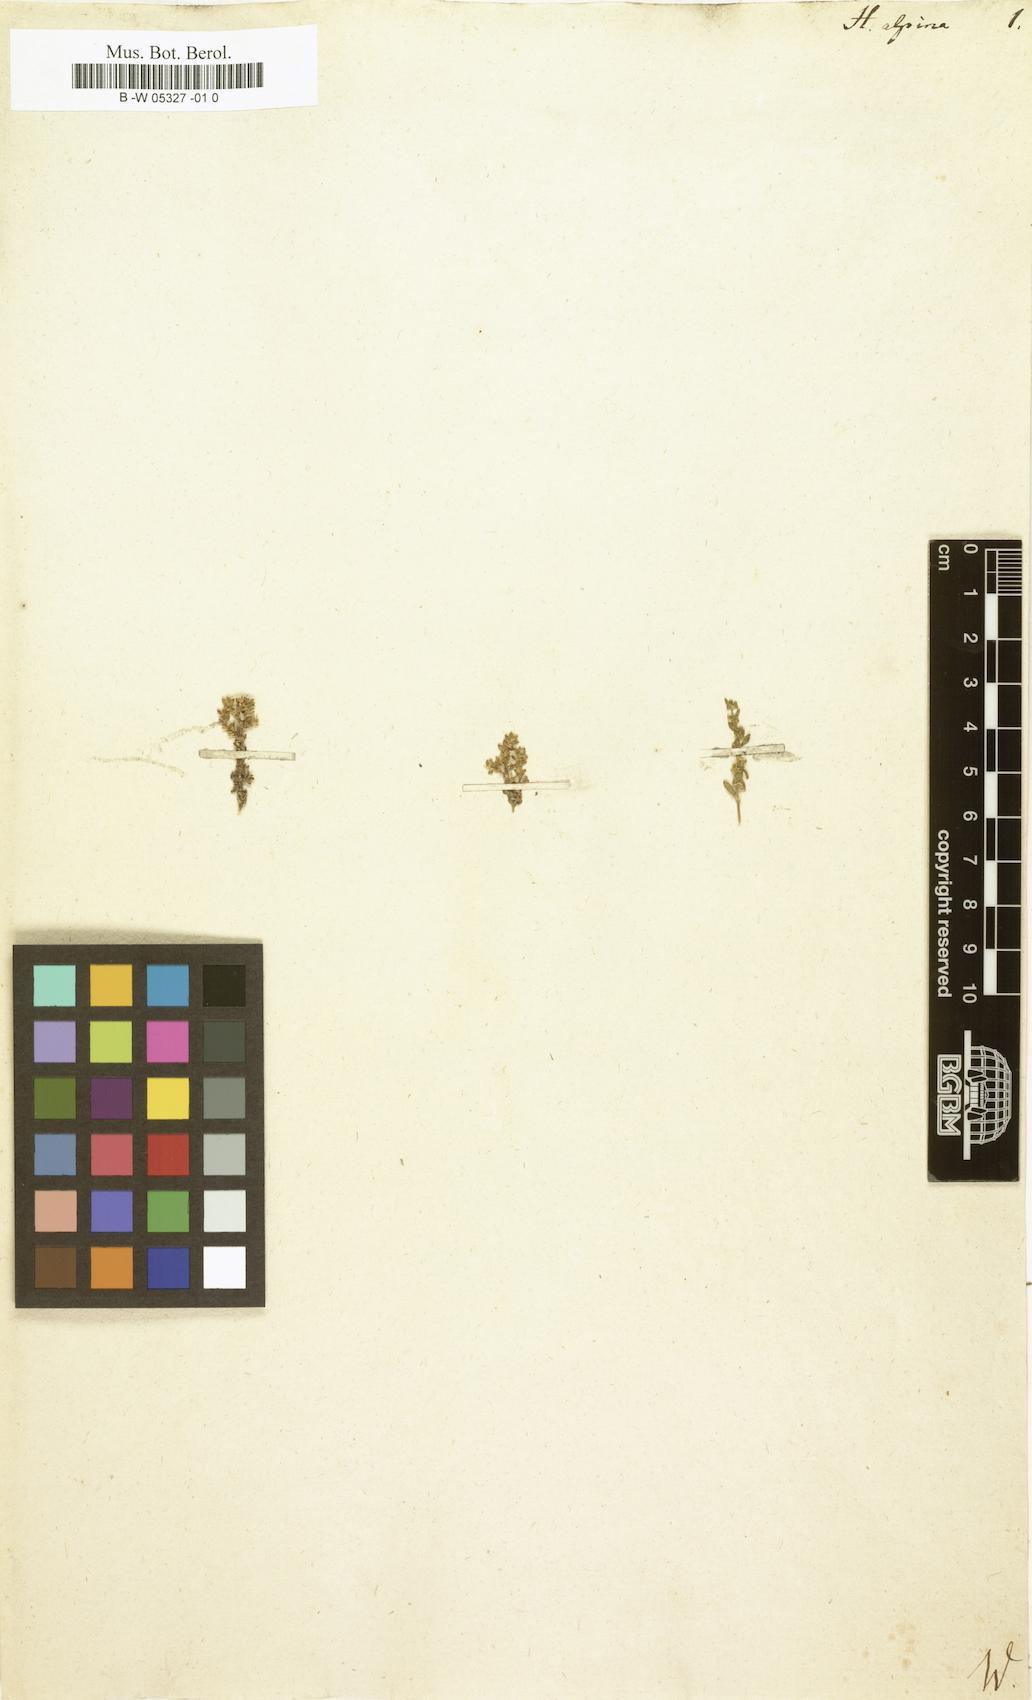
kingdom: Plantae
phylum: Tracheophyta
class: Magnoliopsida
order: Caryophyllales
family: Caryophyllaceae
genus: Herniaria
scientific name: Herniaria alpina
